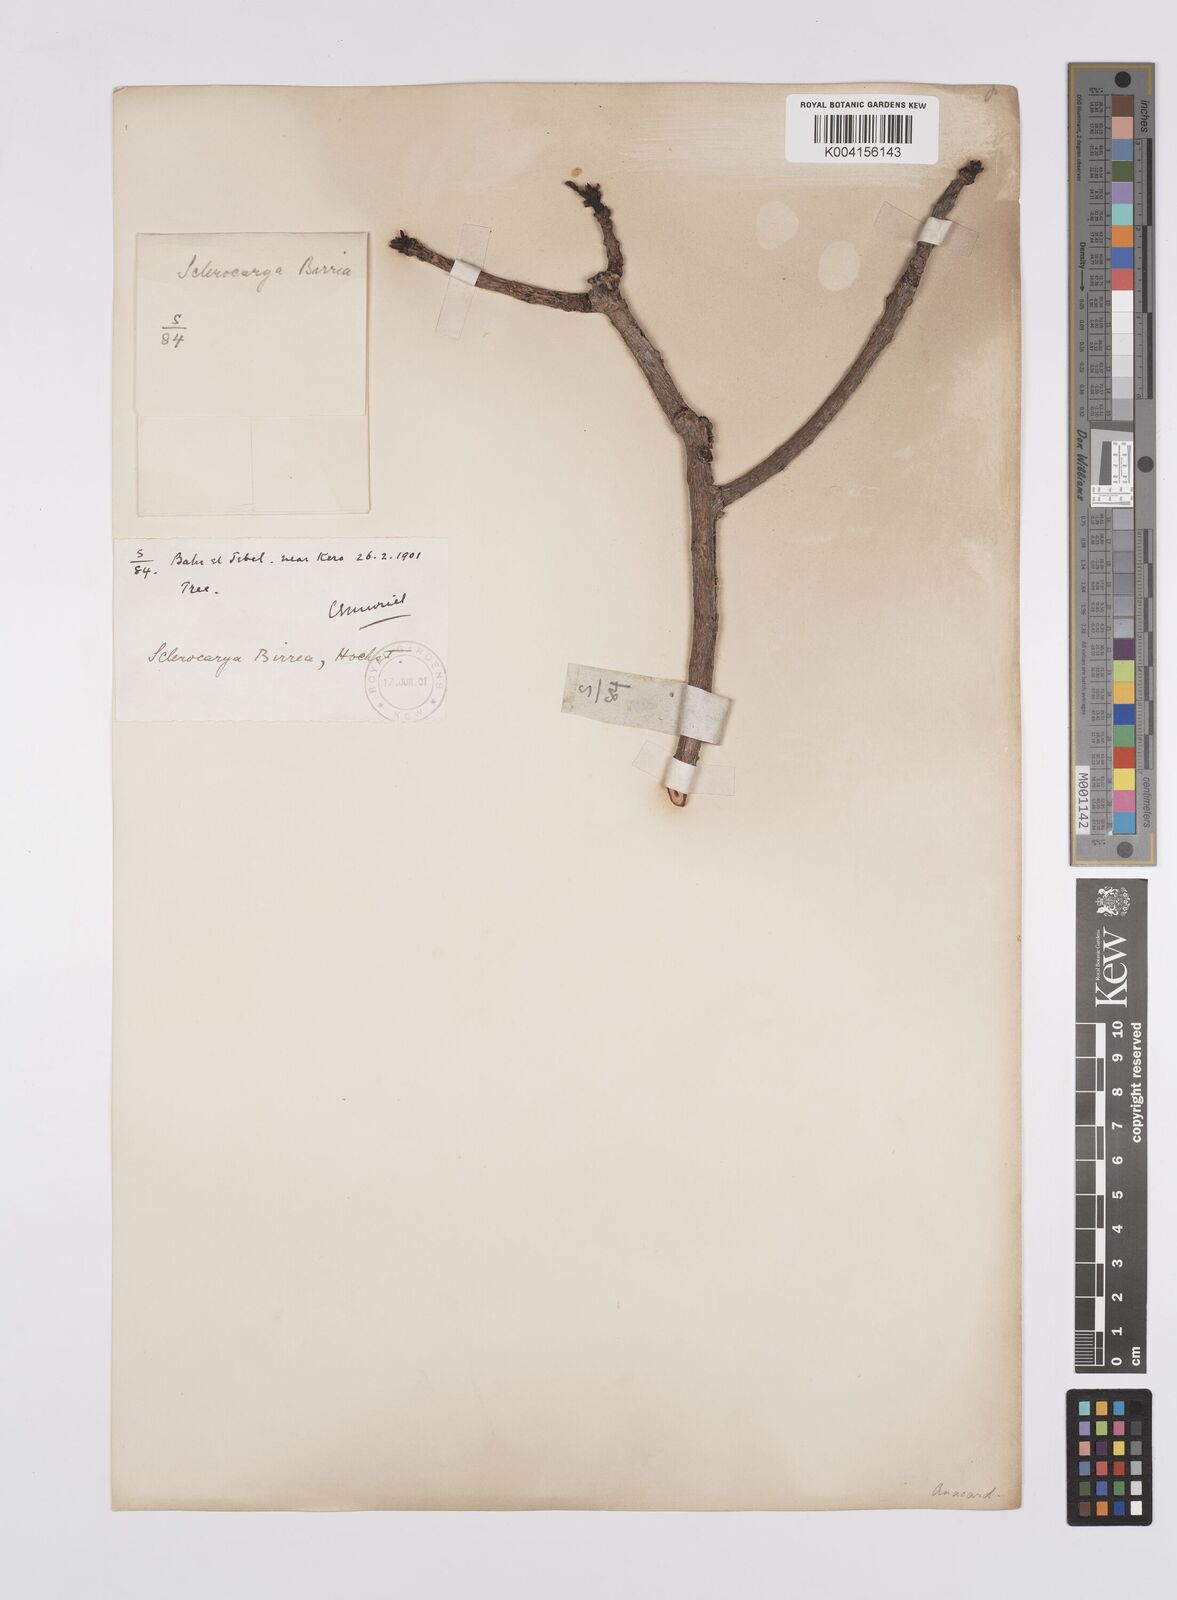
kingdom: Plantae
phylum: Tracheophyta
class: Magnoliopsida
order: Sapindales
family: Anacardiaceae
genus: Sclerocarya
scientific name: Sclerocarya birrea
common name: Marula
